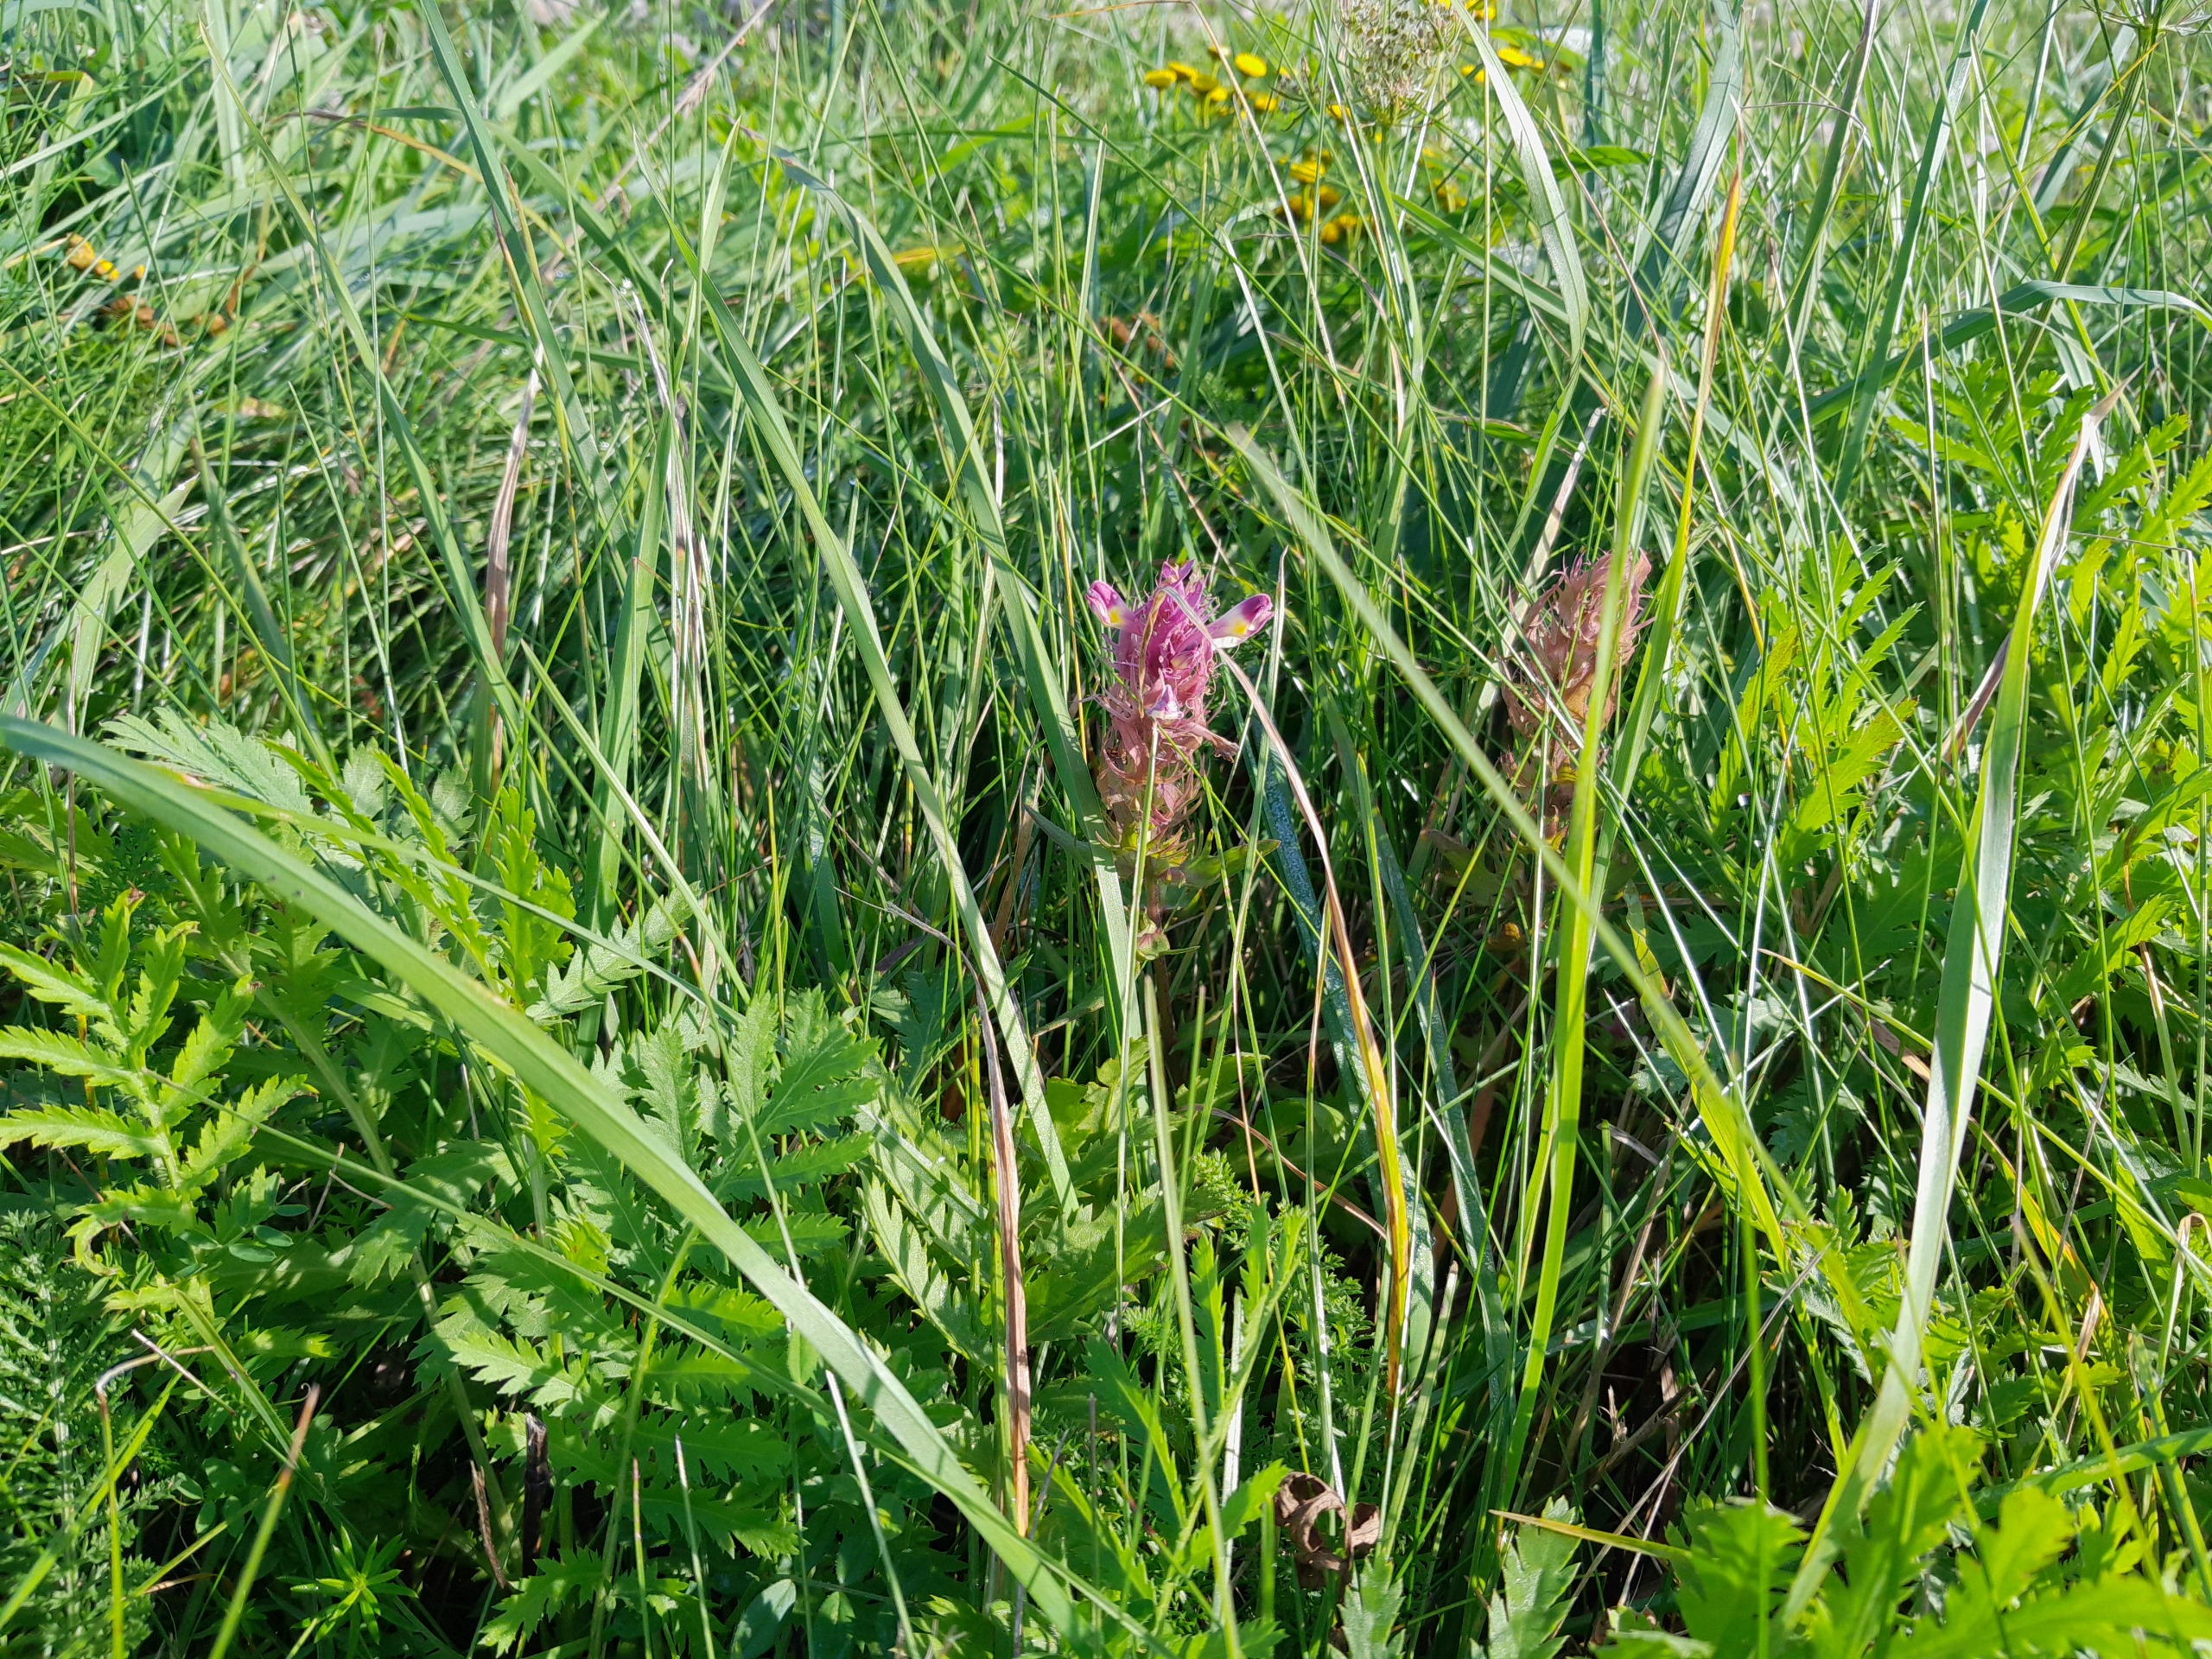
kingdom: Plantae
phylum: Tracheophyta
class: Magnoliopsida
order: Lamiales
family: Orobanchaceae
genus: Melampyrum
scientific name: Melampyrum arvense
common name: Ager-kohvede
